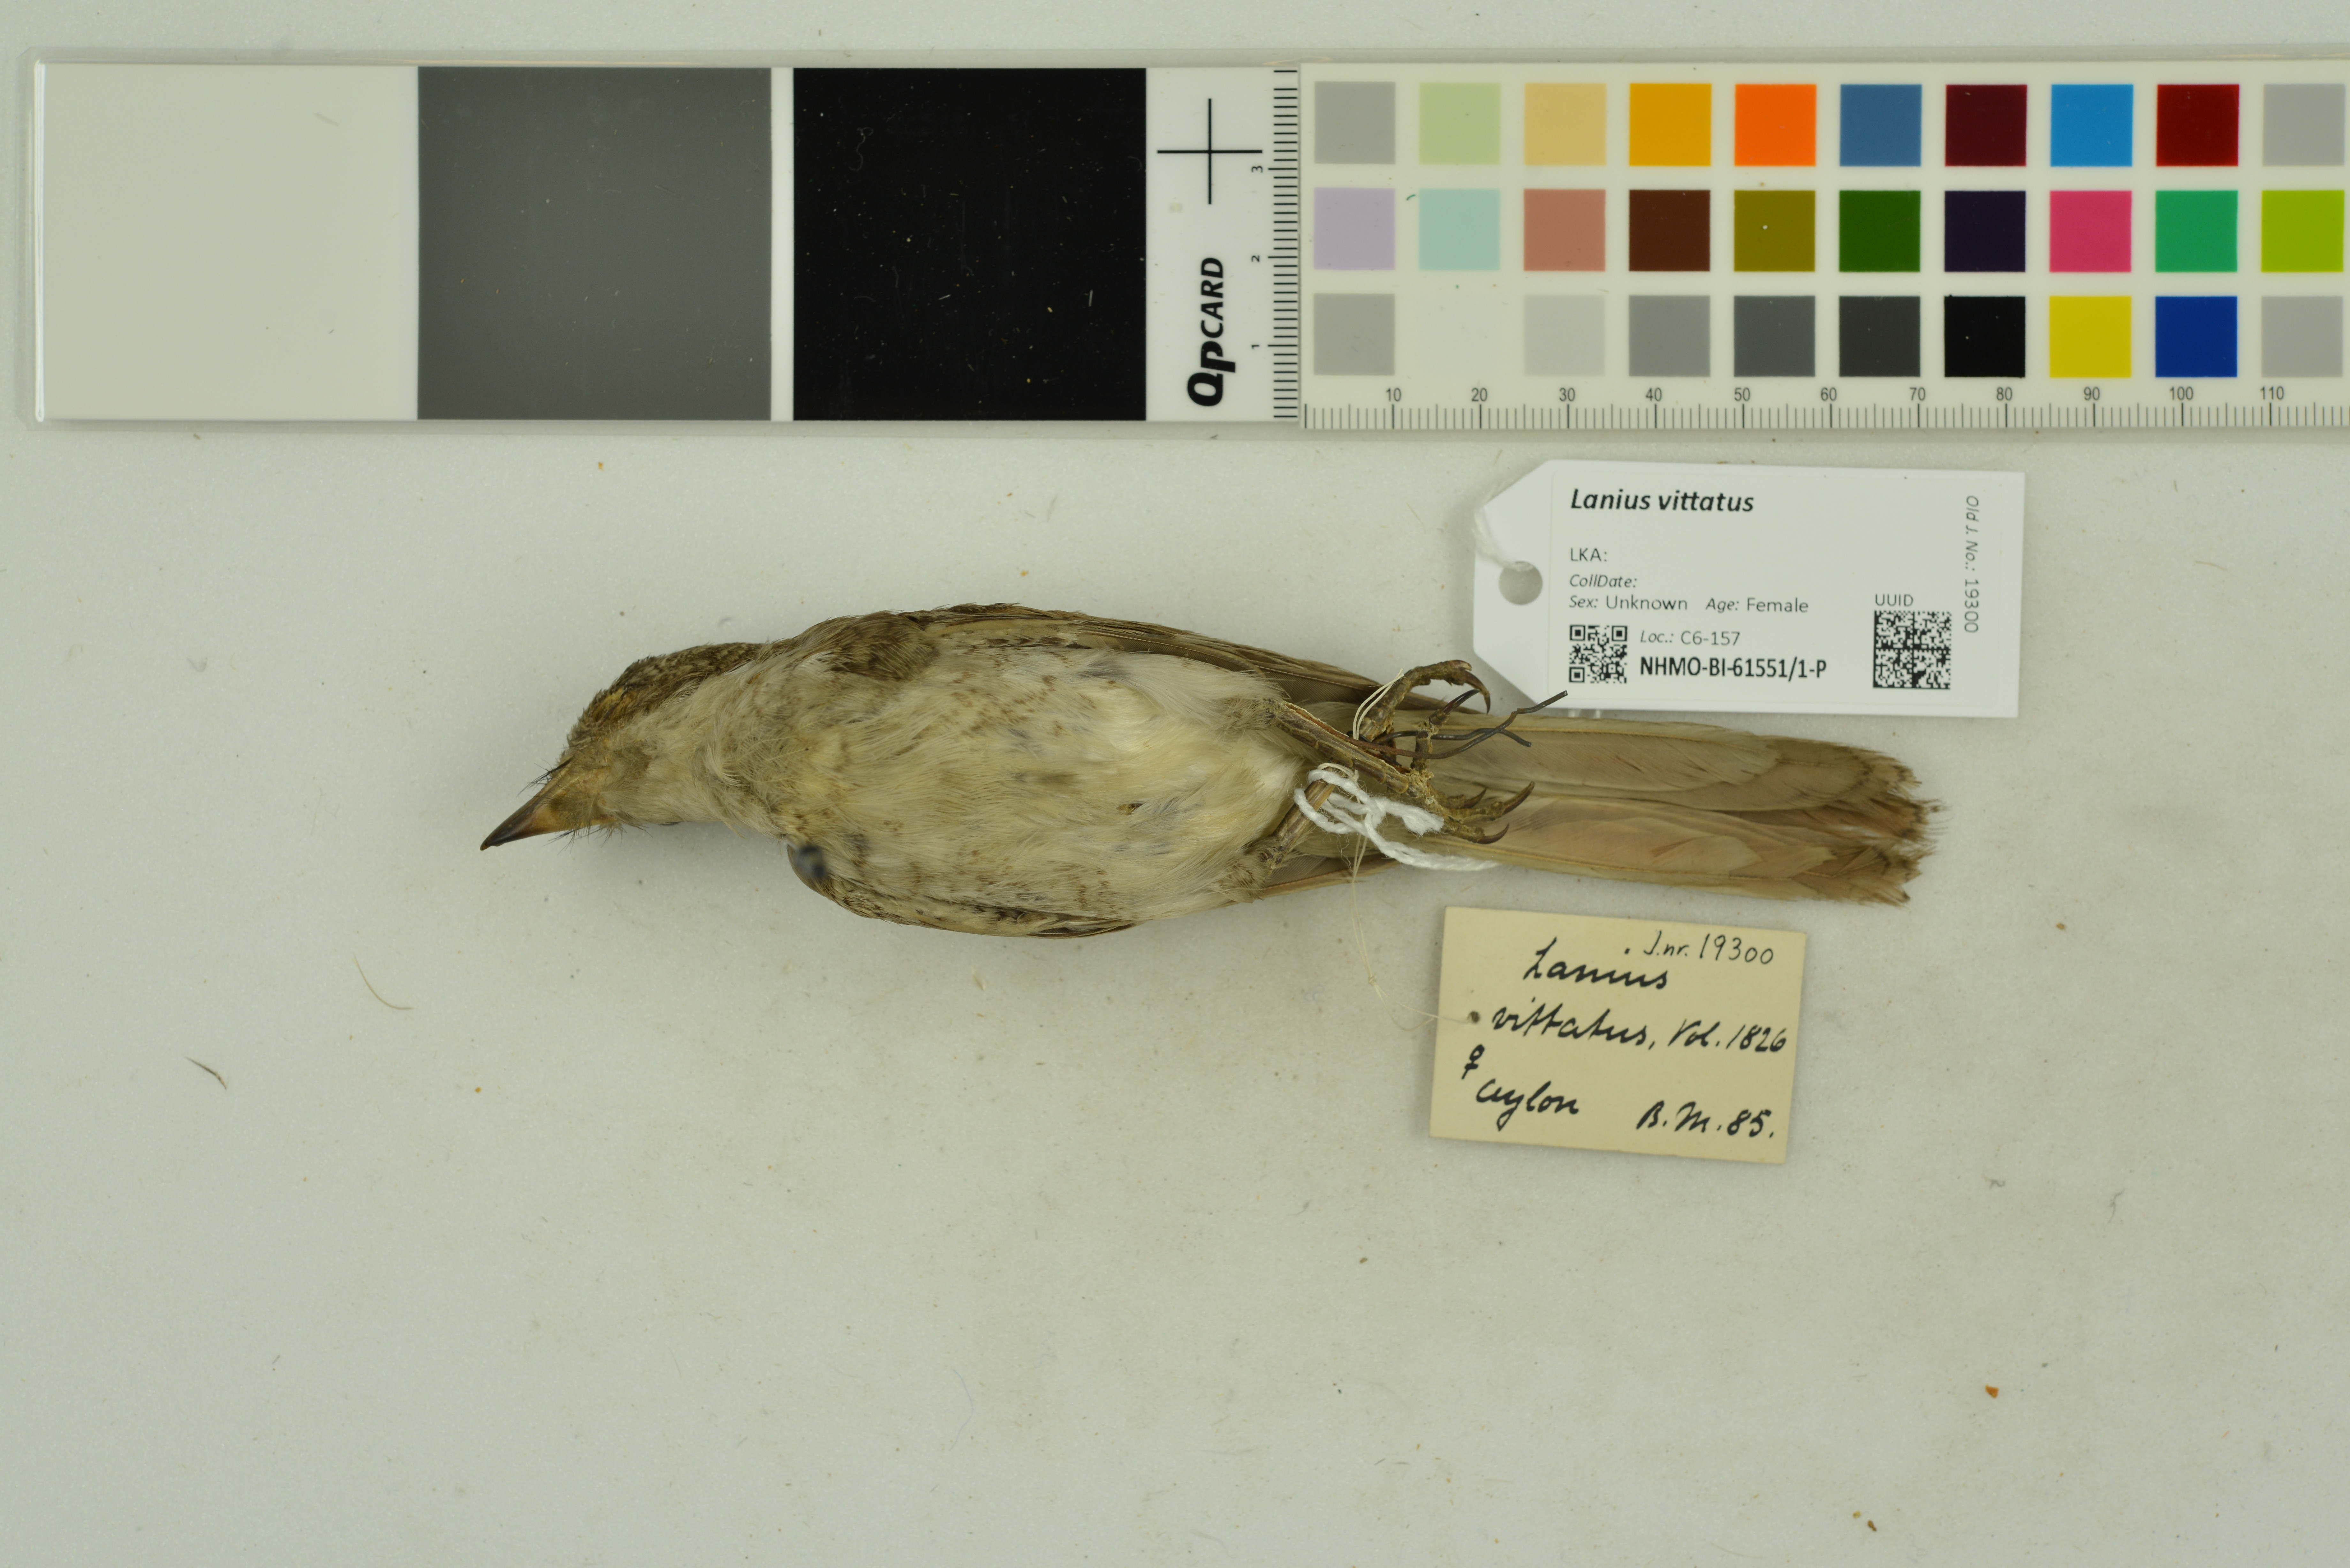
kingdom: Animalia
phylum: Chordata
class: Aves
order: Passeriformes
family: Laniidae
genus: Lanius
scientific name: Lanius vittatus
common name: Bay-backed shrike
